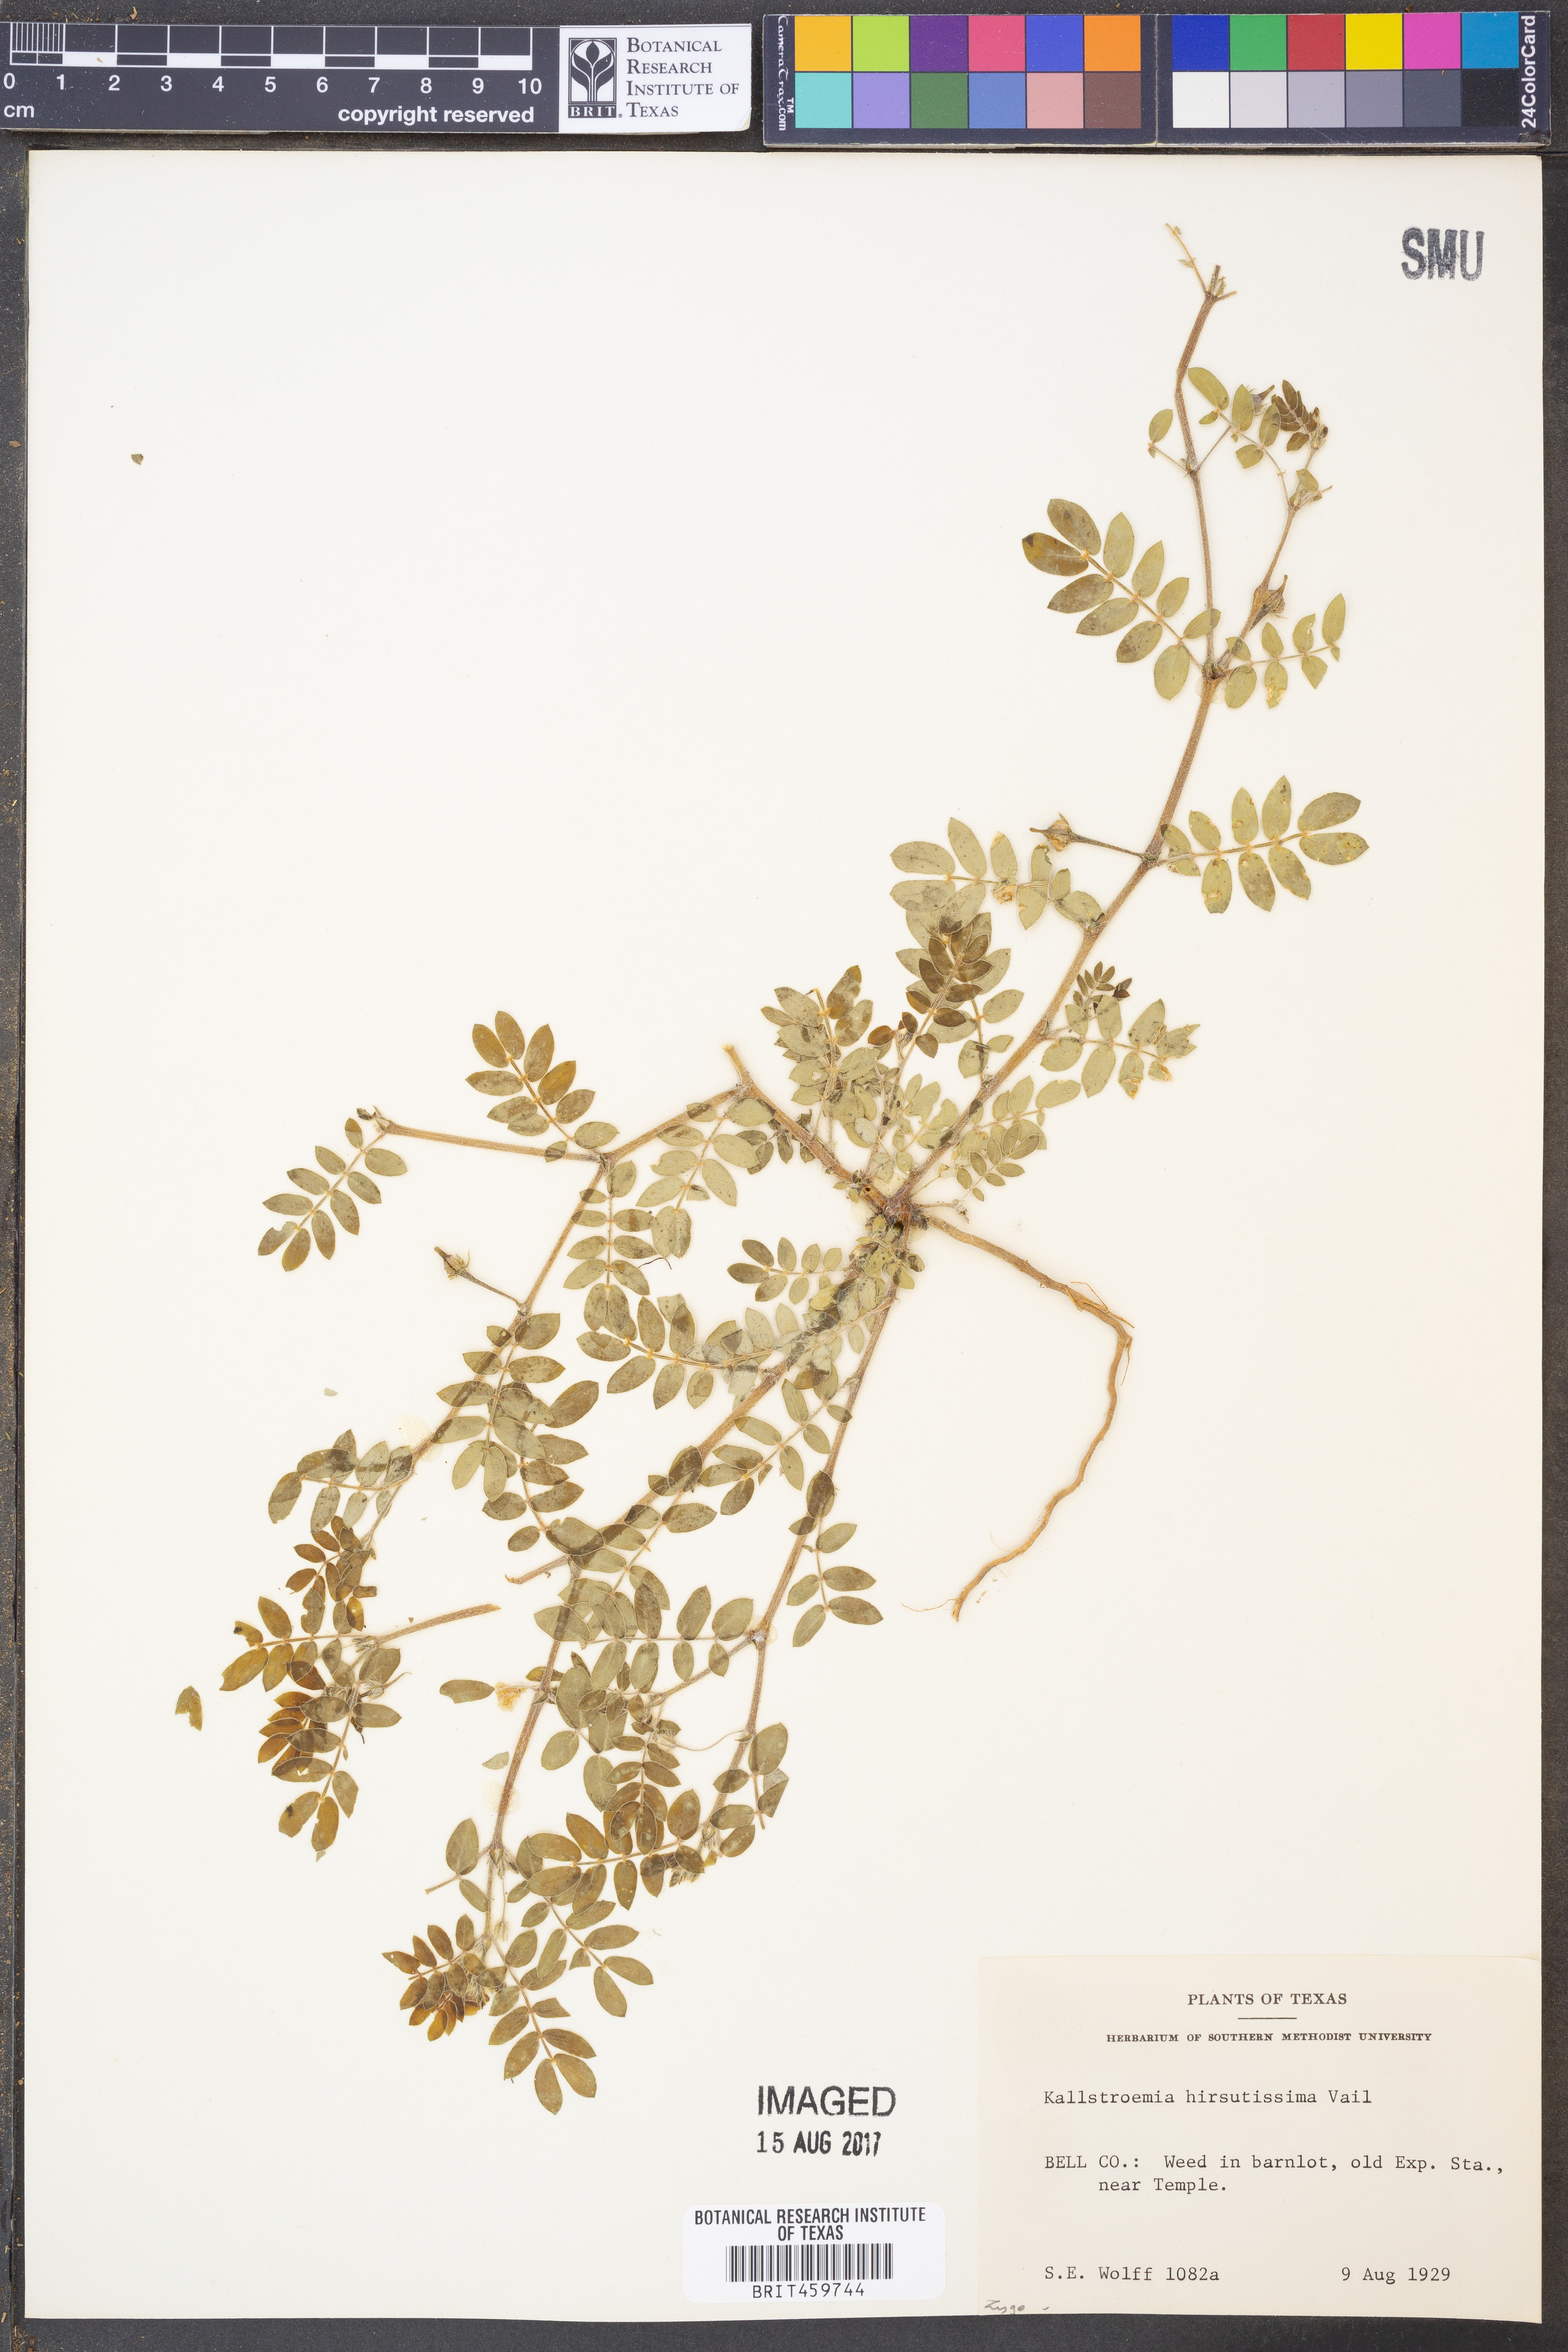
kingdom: Plantae
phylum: Tracheophyta
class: Magnoliopsida
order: Zygophyllales
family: Zygophyllaceae
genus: Kallstroemia
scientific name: Kallstroemia hirsutissima
